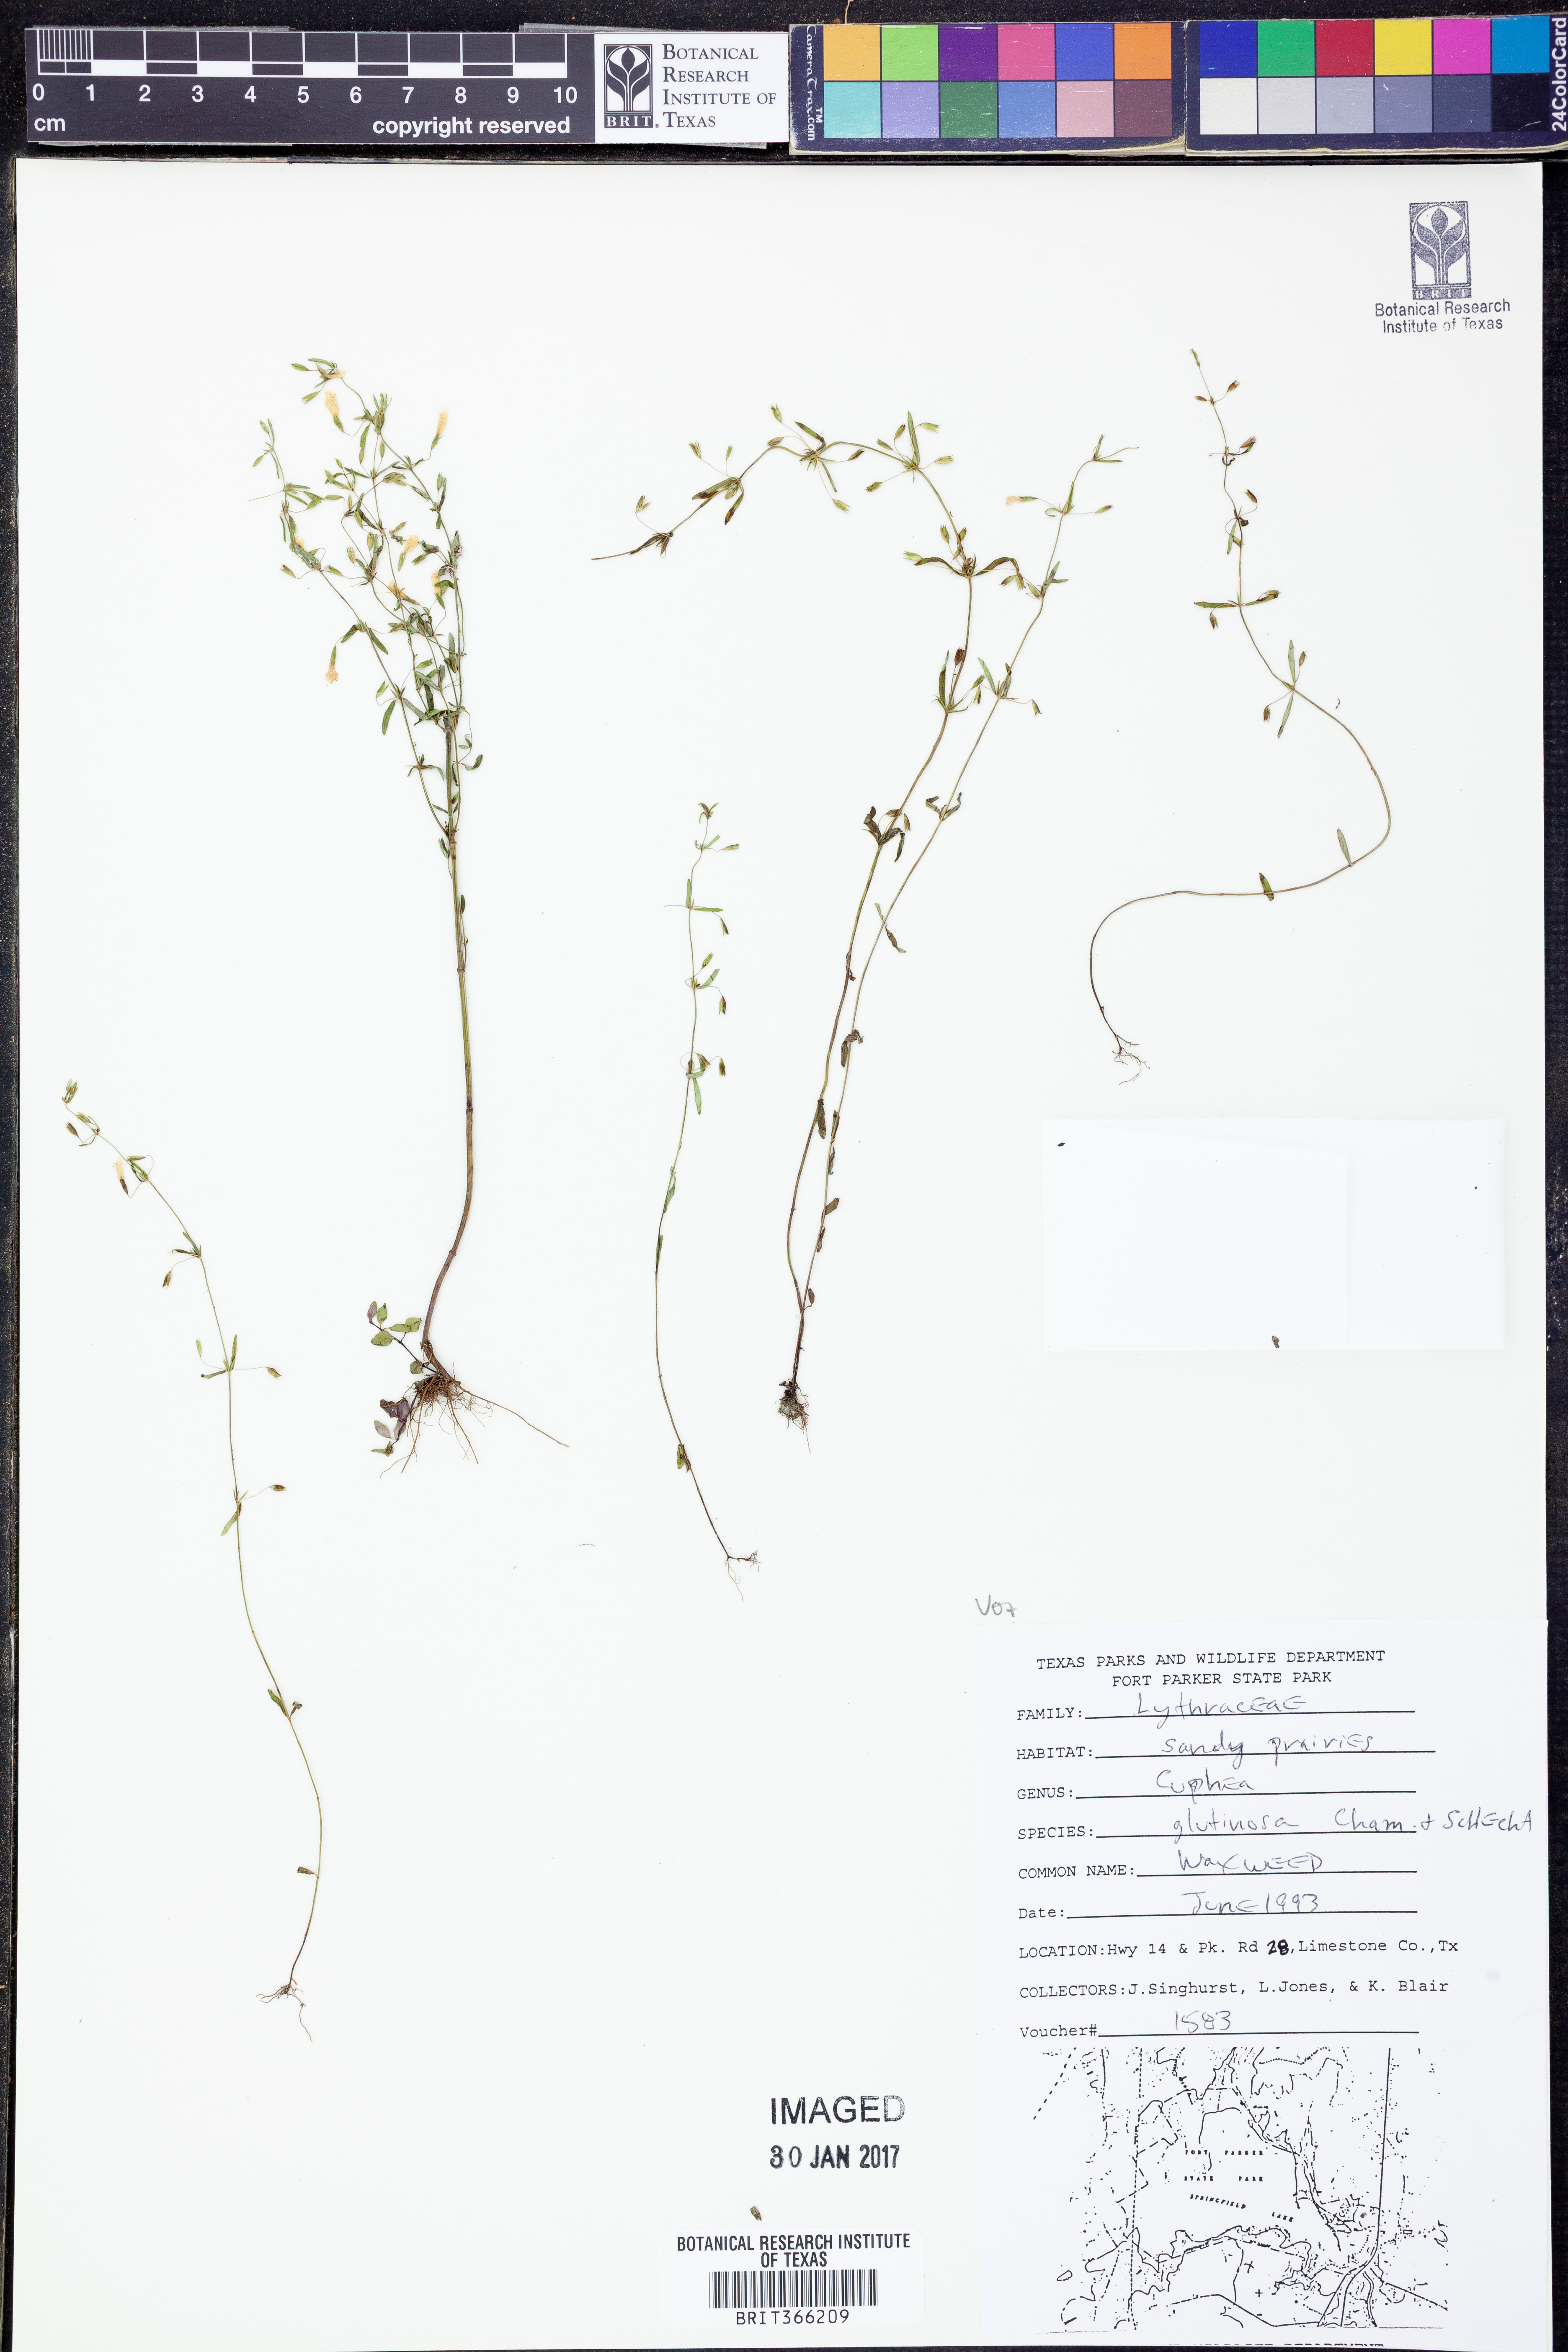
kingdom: Plantae
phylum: Tracheophyta
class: Magnoliopsida
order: Myrtales
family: Lythraceae
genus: Cuphea
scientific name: Cuphea glutinosa
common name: Sticky waxweed
